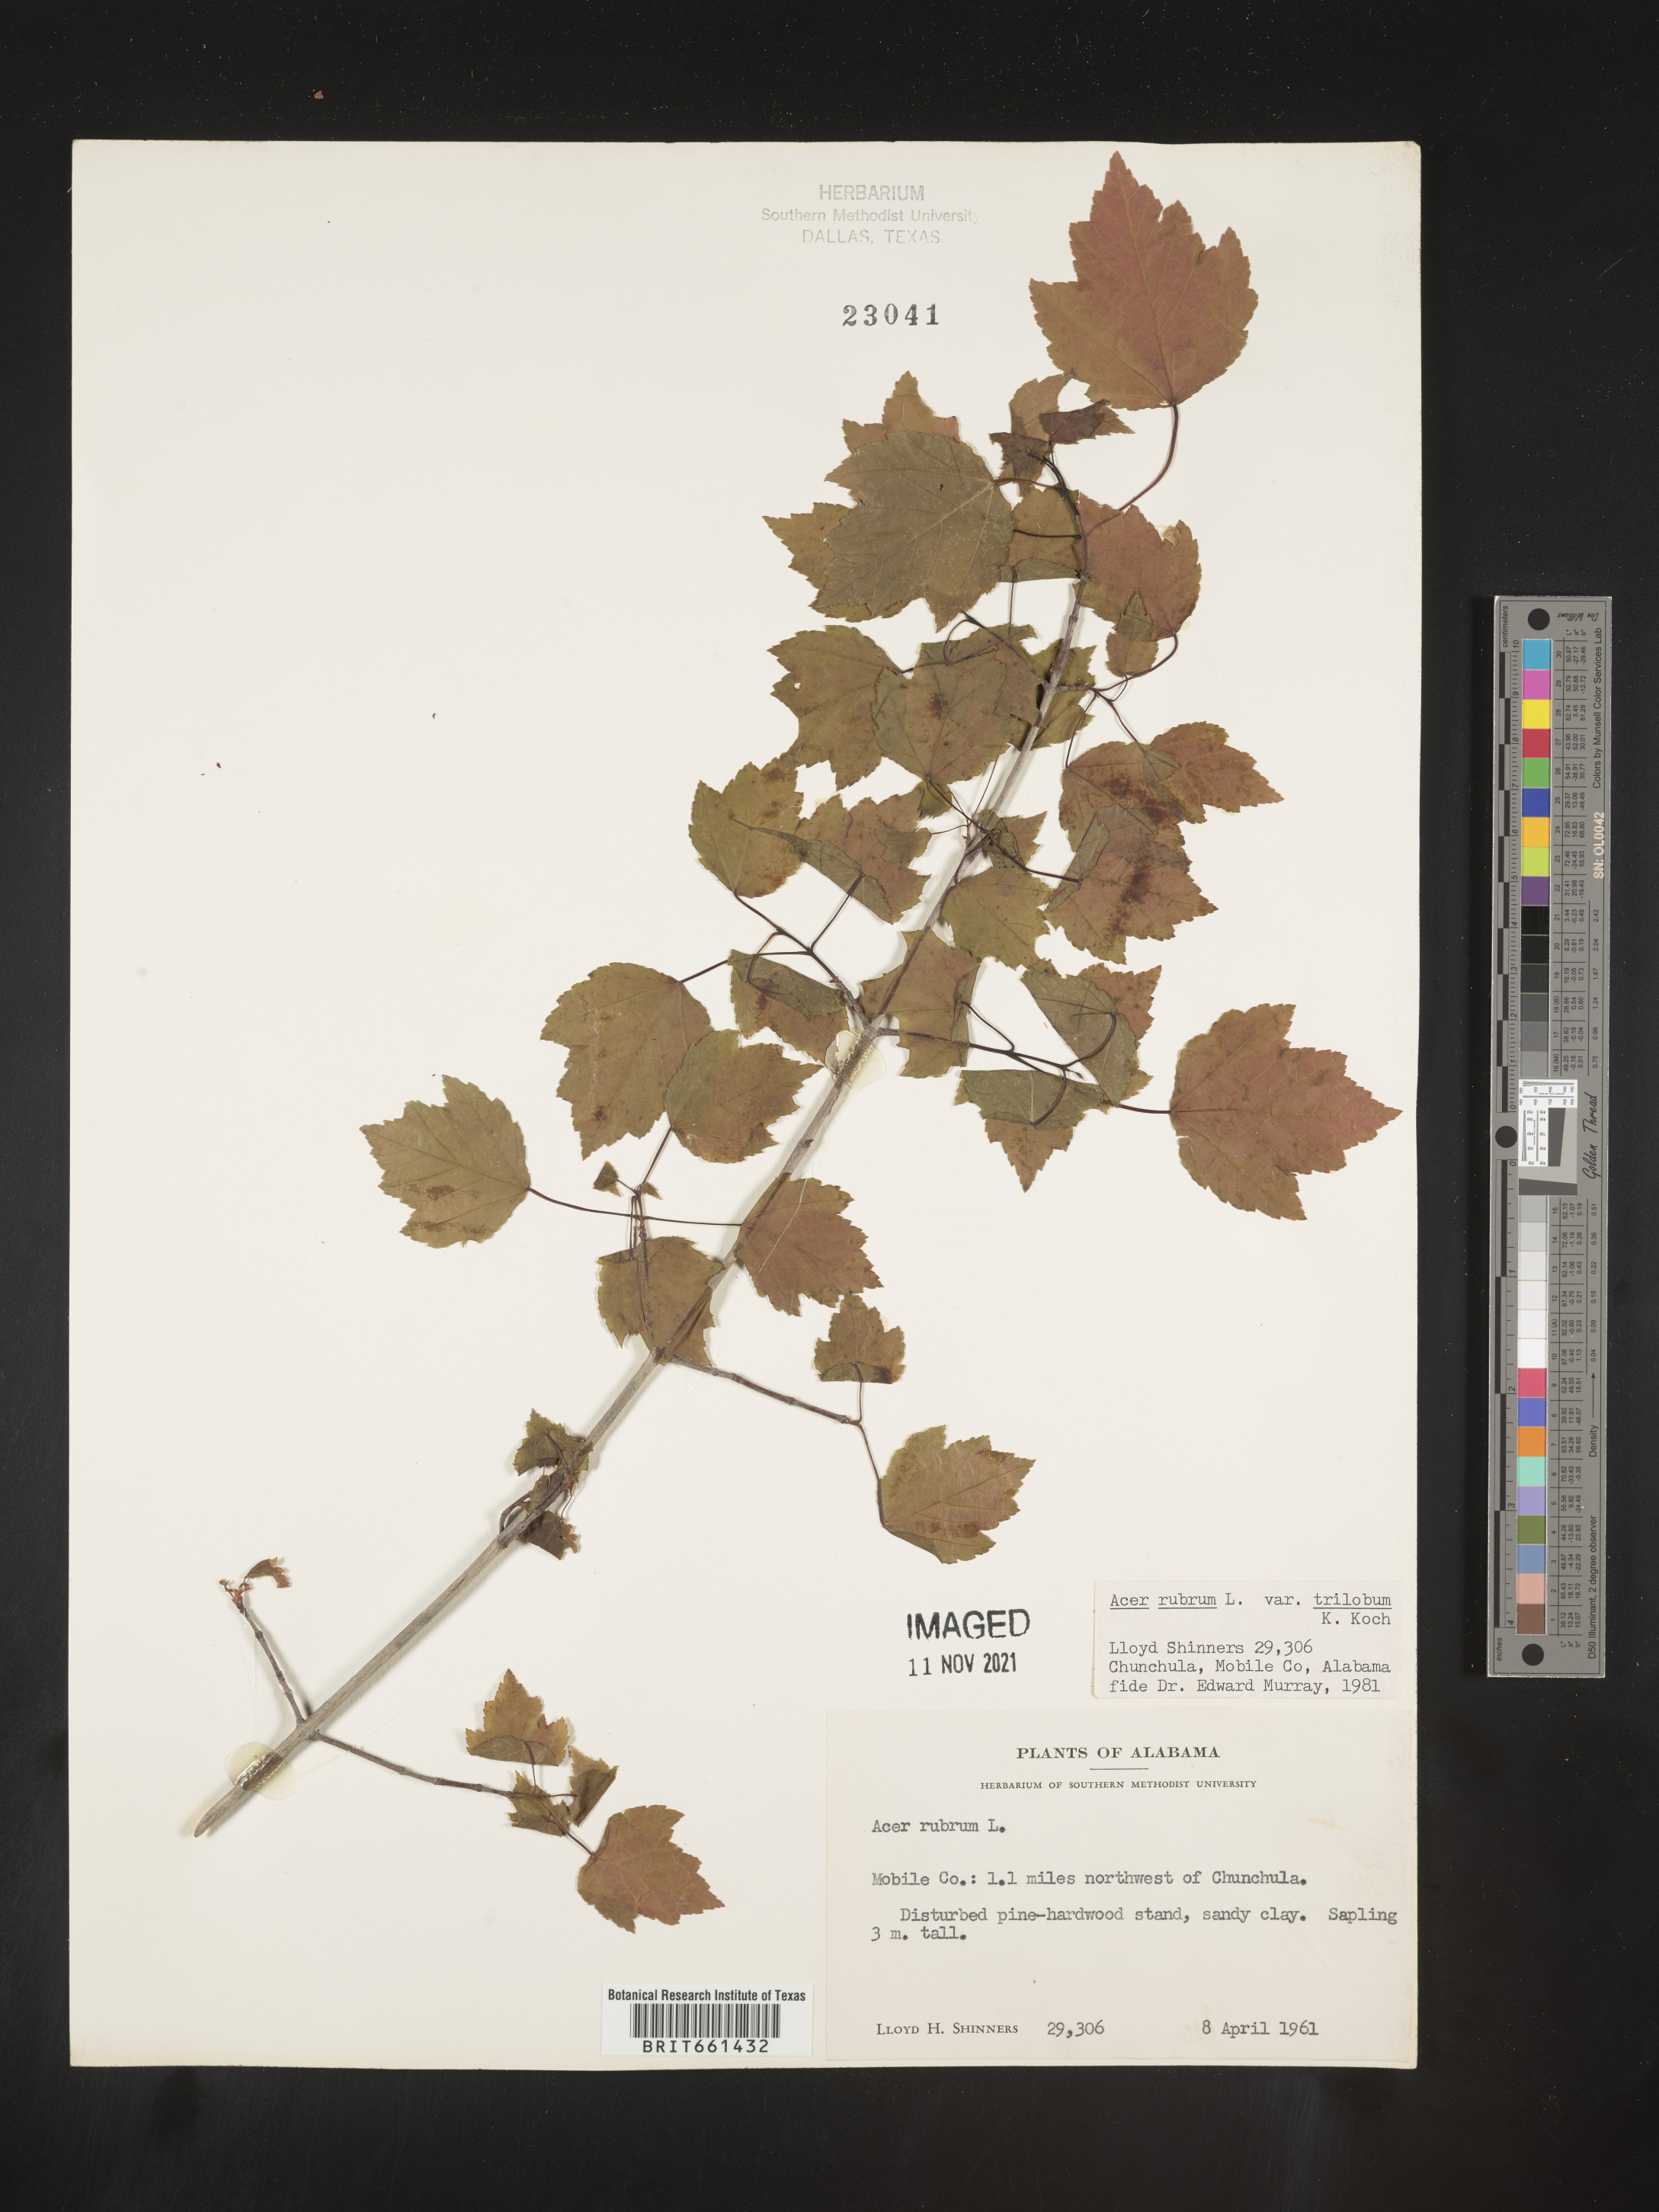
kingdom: Plantae
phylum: Tracheophyta
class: Magnoliopsida
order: Sapindales
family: Sapindaceae
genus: Acer
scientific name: Acer rubrum
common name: Red maple
